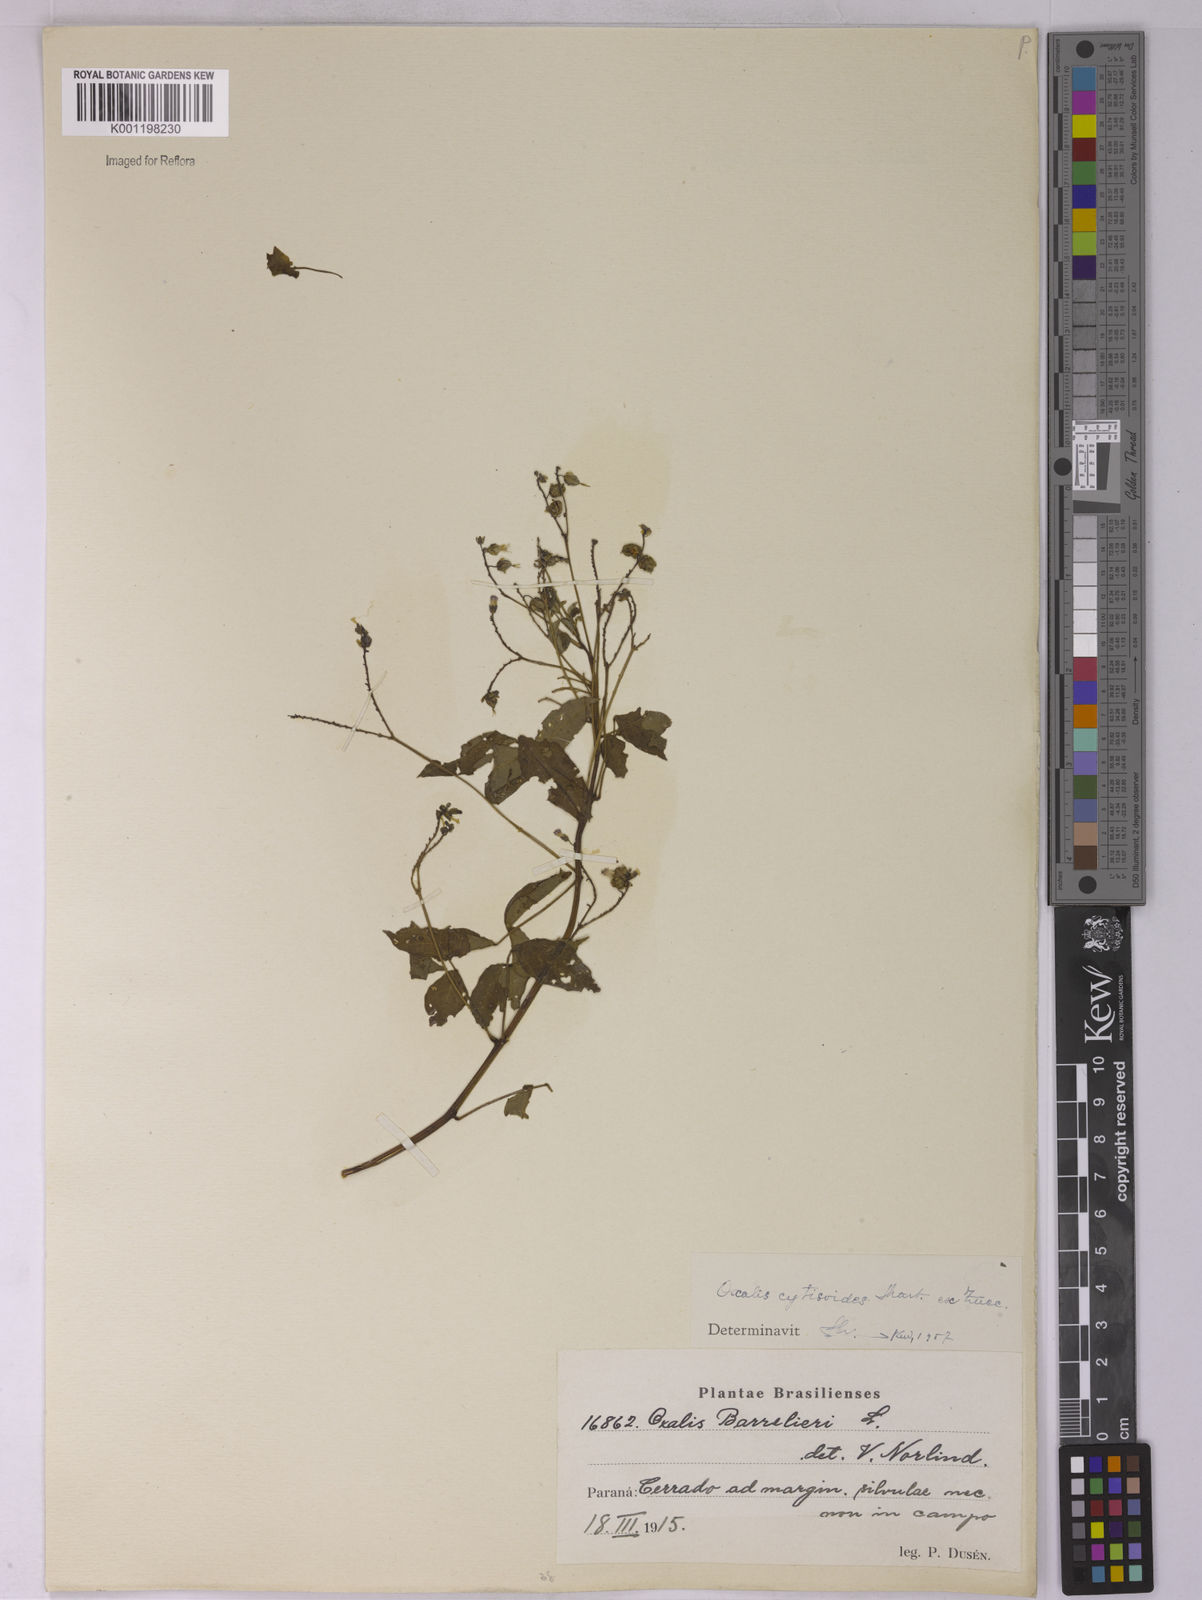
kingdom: Plantae
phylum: Tracheophyta
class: Magnoliopsida
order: Oxalidales
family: Oxalidaceae
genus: Oxalis
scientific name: Oxalis cytisoides
